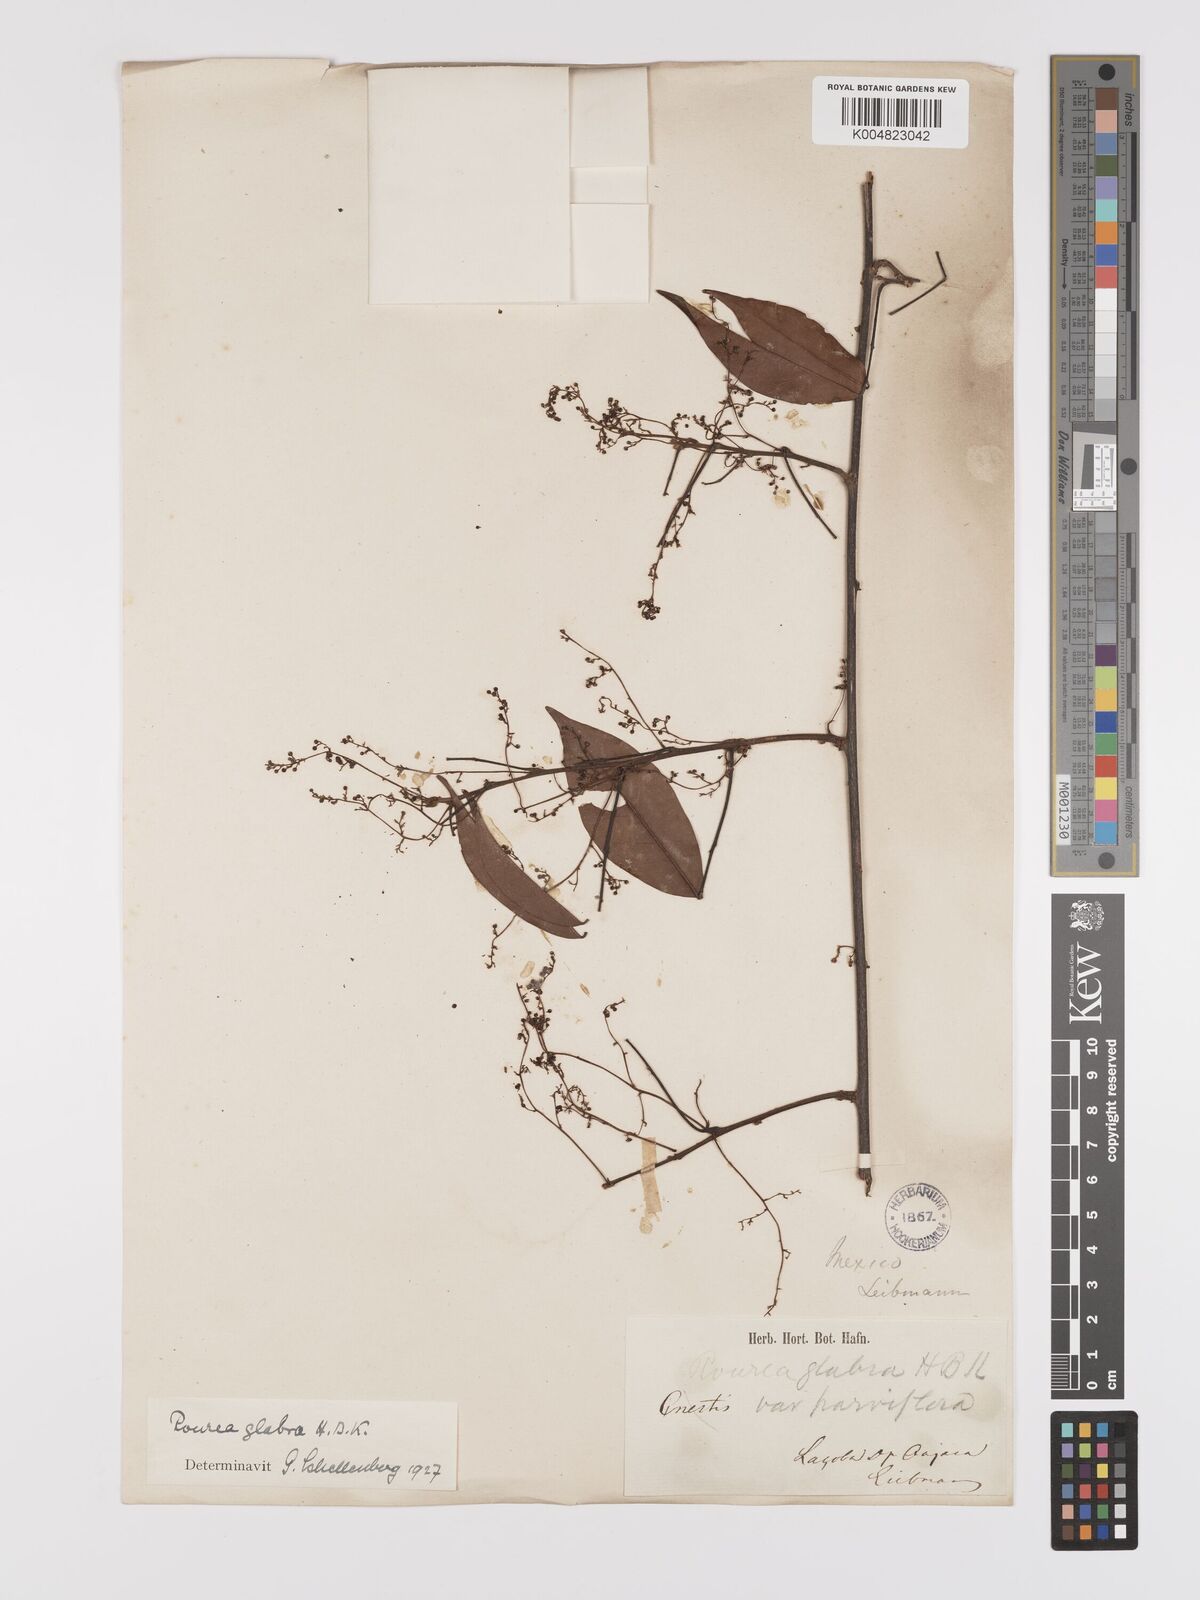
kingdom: Plantae
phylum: Tracheophyta
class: Magnoliopsida
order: Oxalidales
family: Connaraceae
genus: Rourea
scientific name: Rourea glabra
